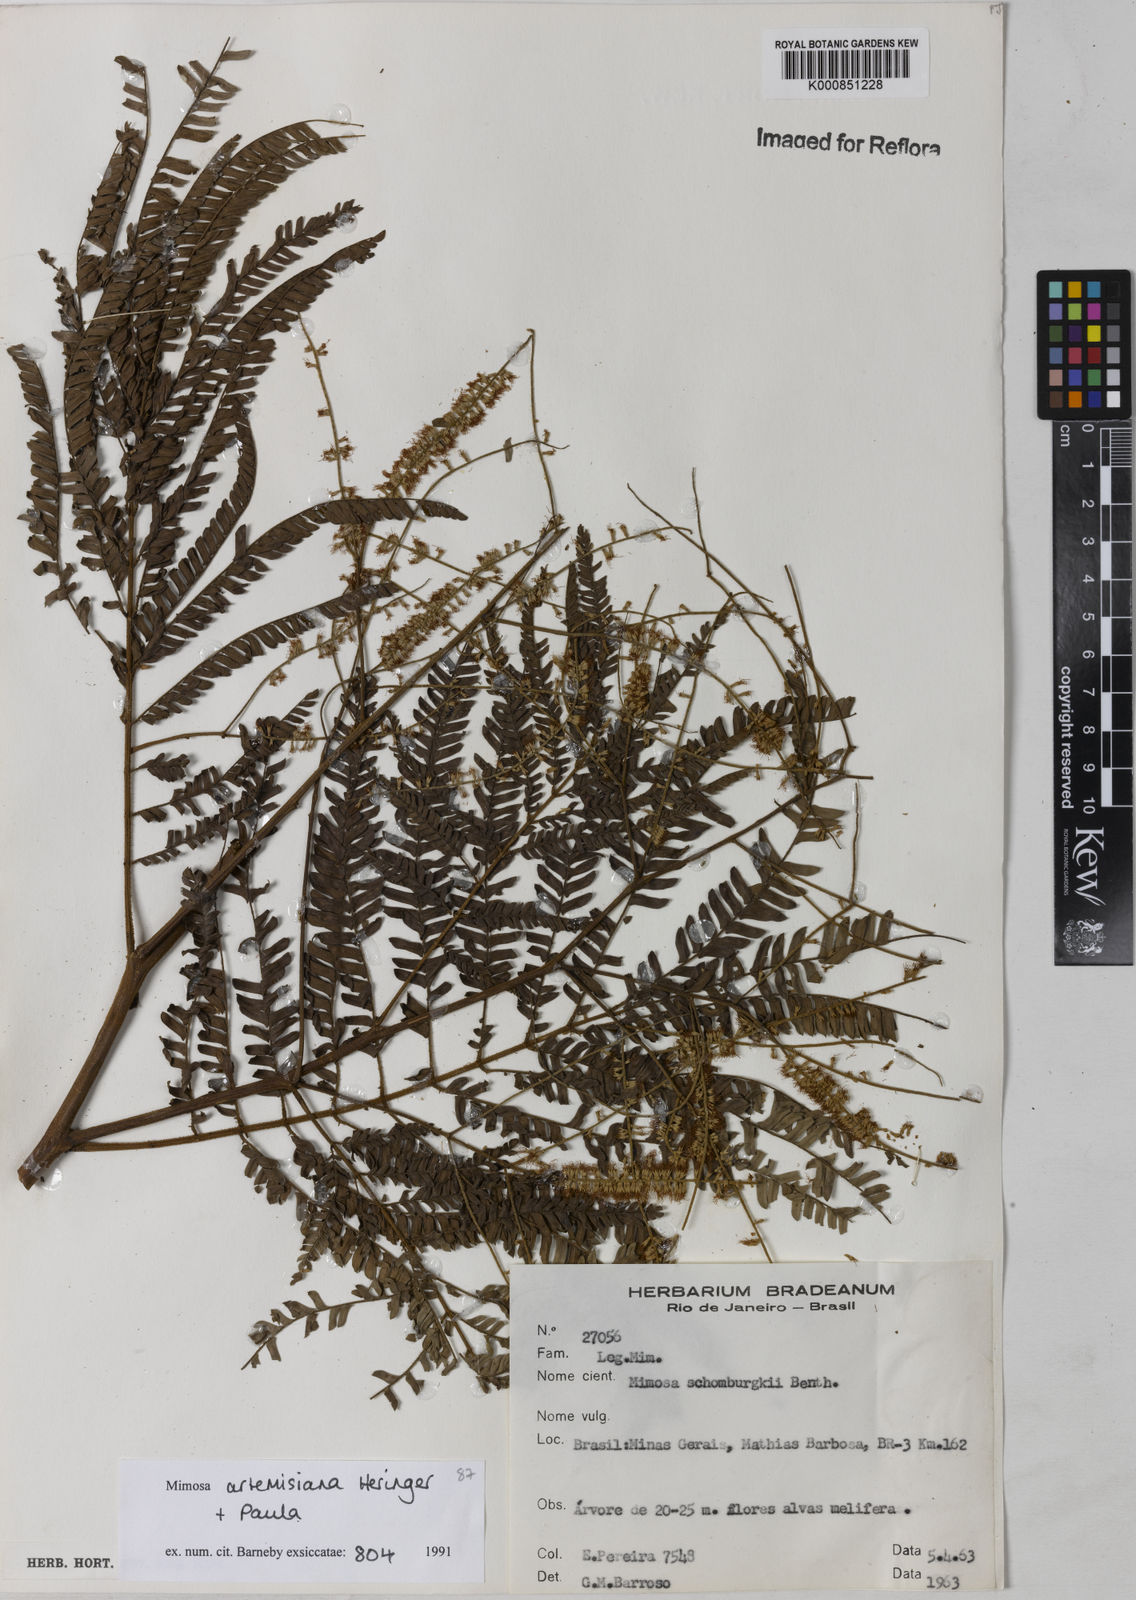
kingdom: Plantae
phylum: Tracheophyta
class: Magnoliopsida
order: Fabales
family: Fabaceae
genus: Mimosa
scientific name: Mimosa schomburgkii
